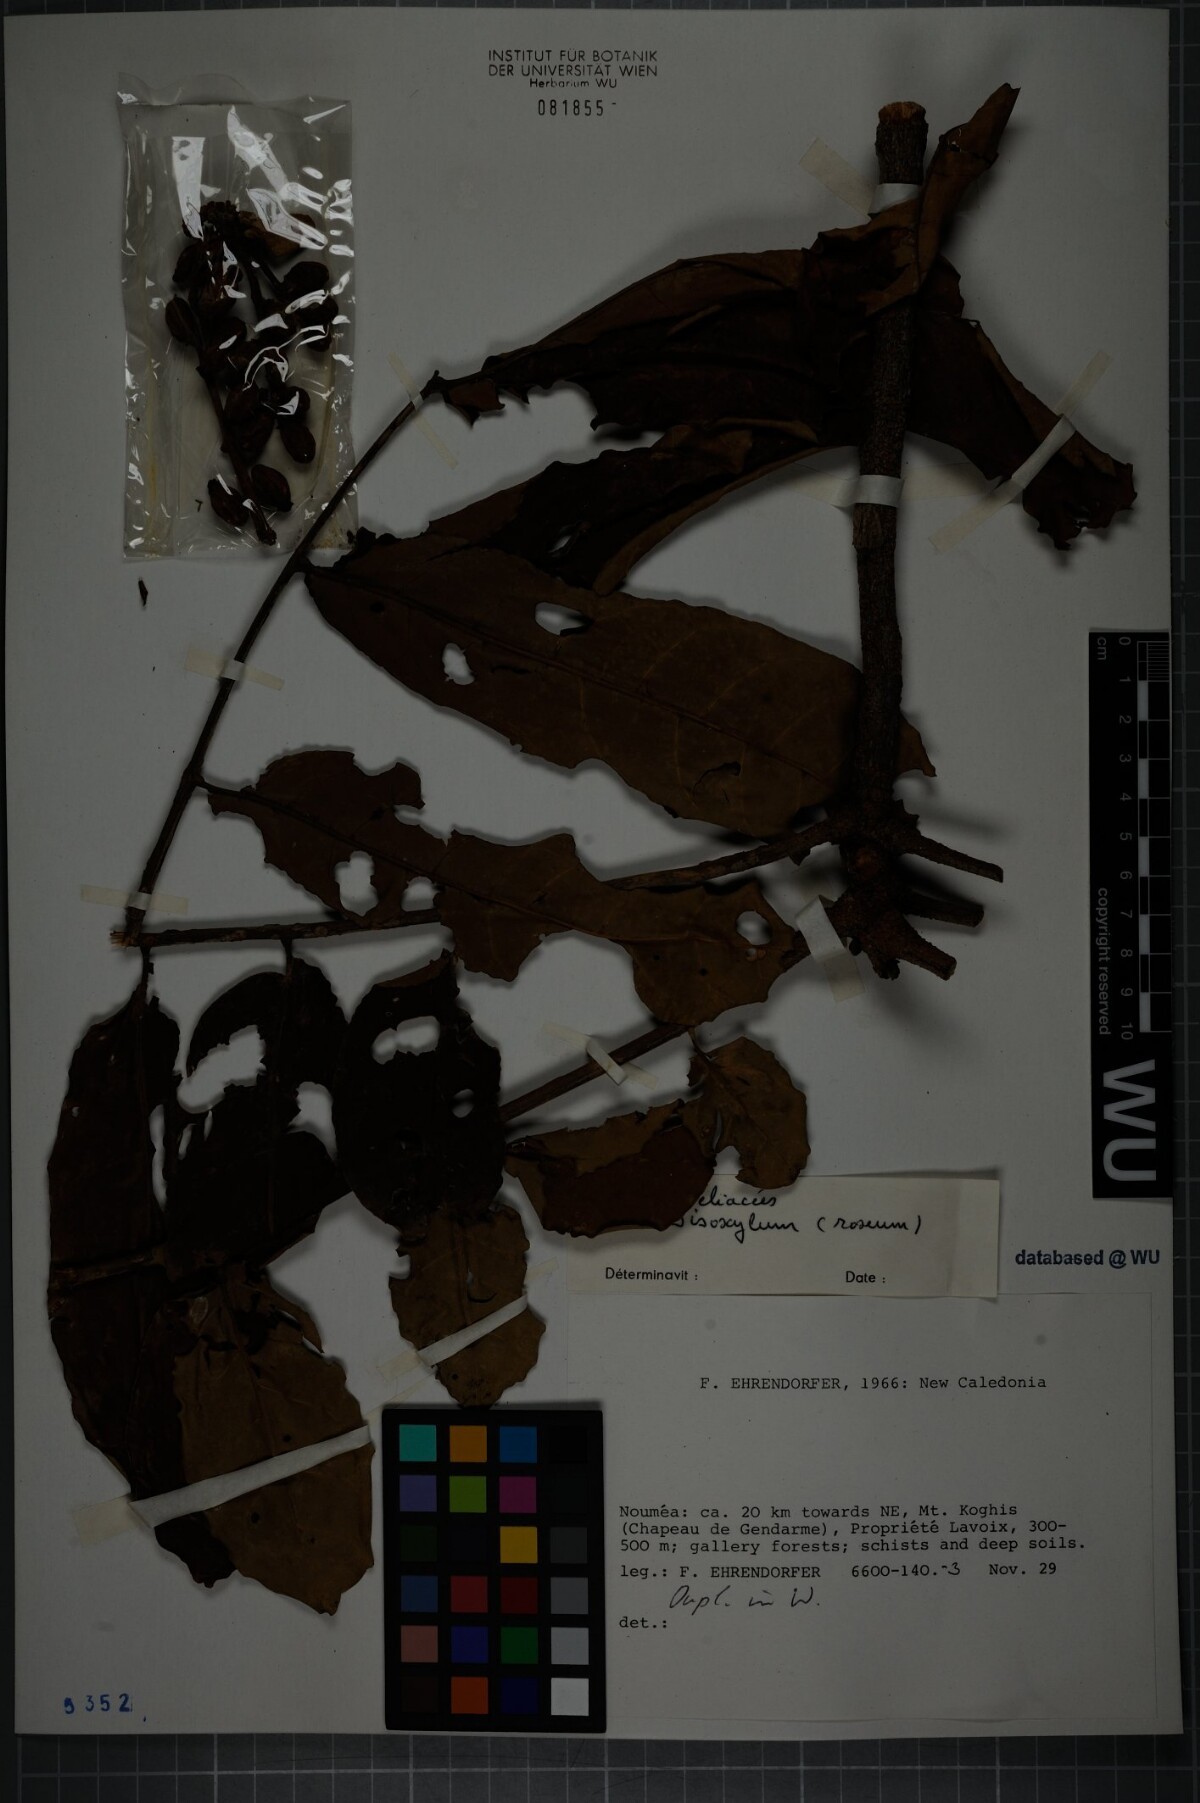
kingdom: Plantae
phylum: Tracheophyta
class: Magnoliopsida
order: Sapindales
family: Meliaceae
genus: Didymocheton
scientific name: Didymocheton roseus
